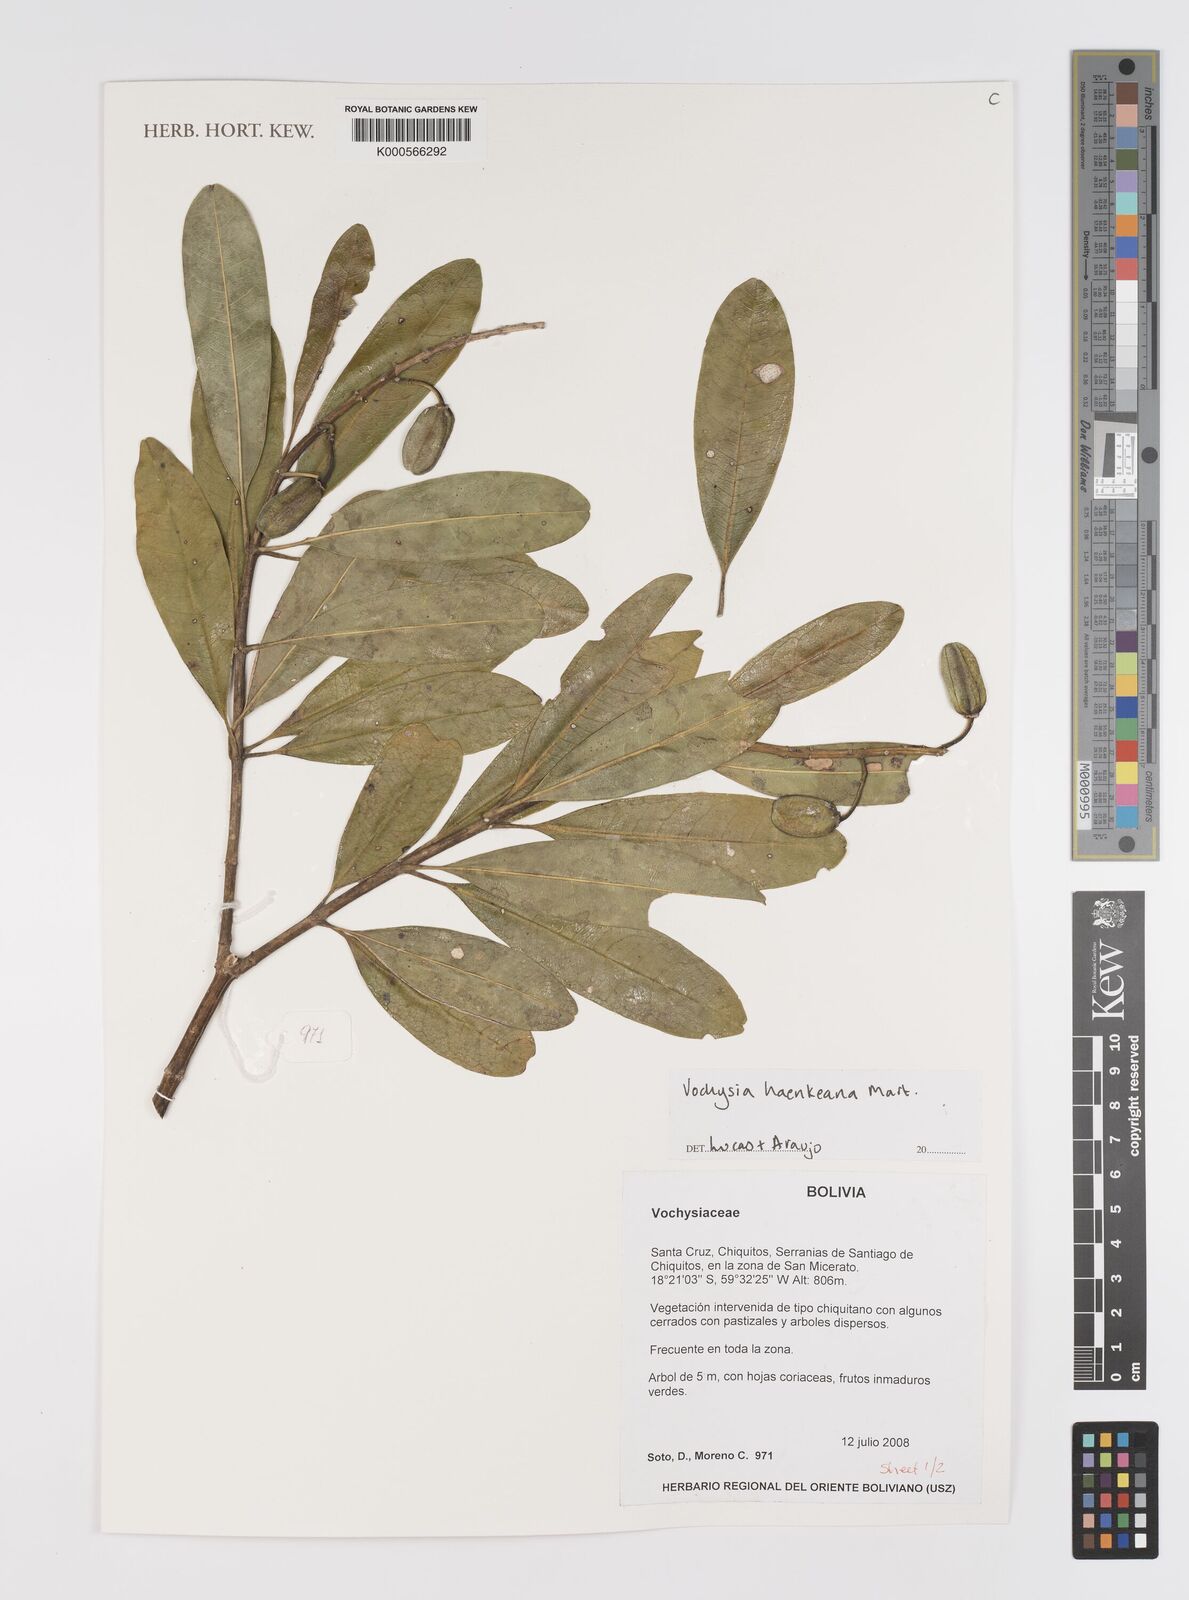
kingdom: Plantae
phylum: Tracheophyta
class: Magnoliopsida
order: Myrtales
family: Vochysiaceae
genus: Vochysia
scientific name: Vochysia haenkeana
